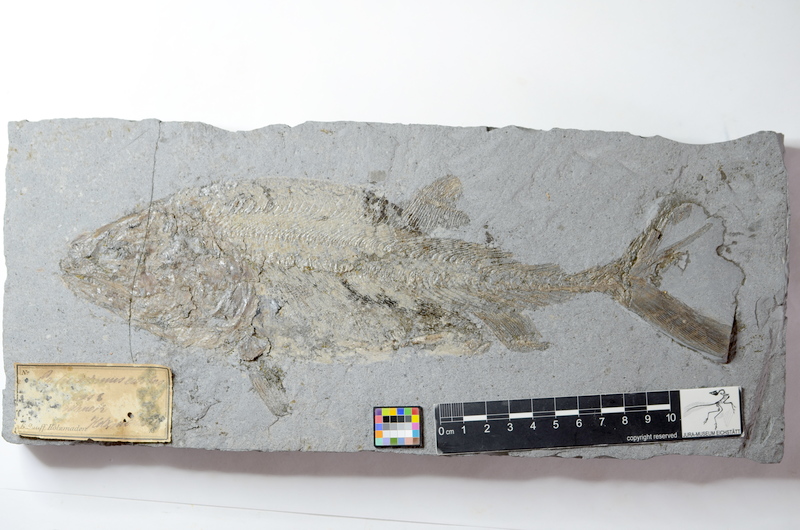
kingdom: Animalia
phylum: Chordata
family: Pachycormidae
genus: Pachycormus
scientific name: Pachycormus macropterus
